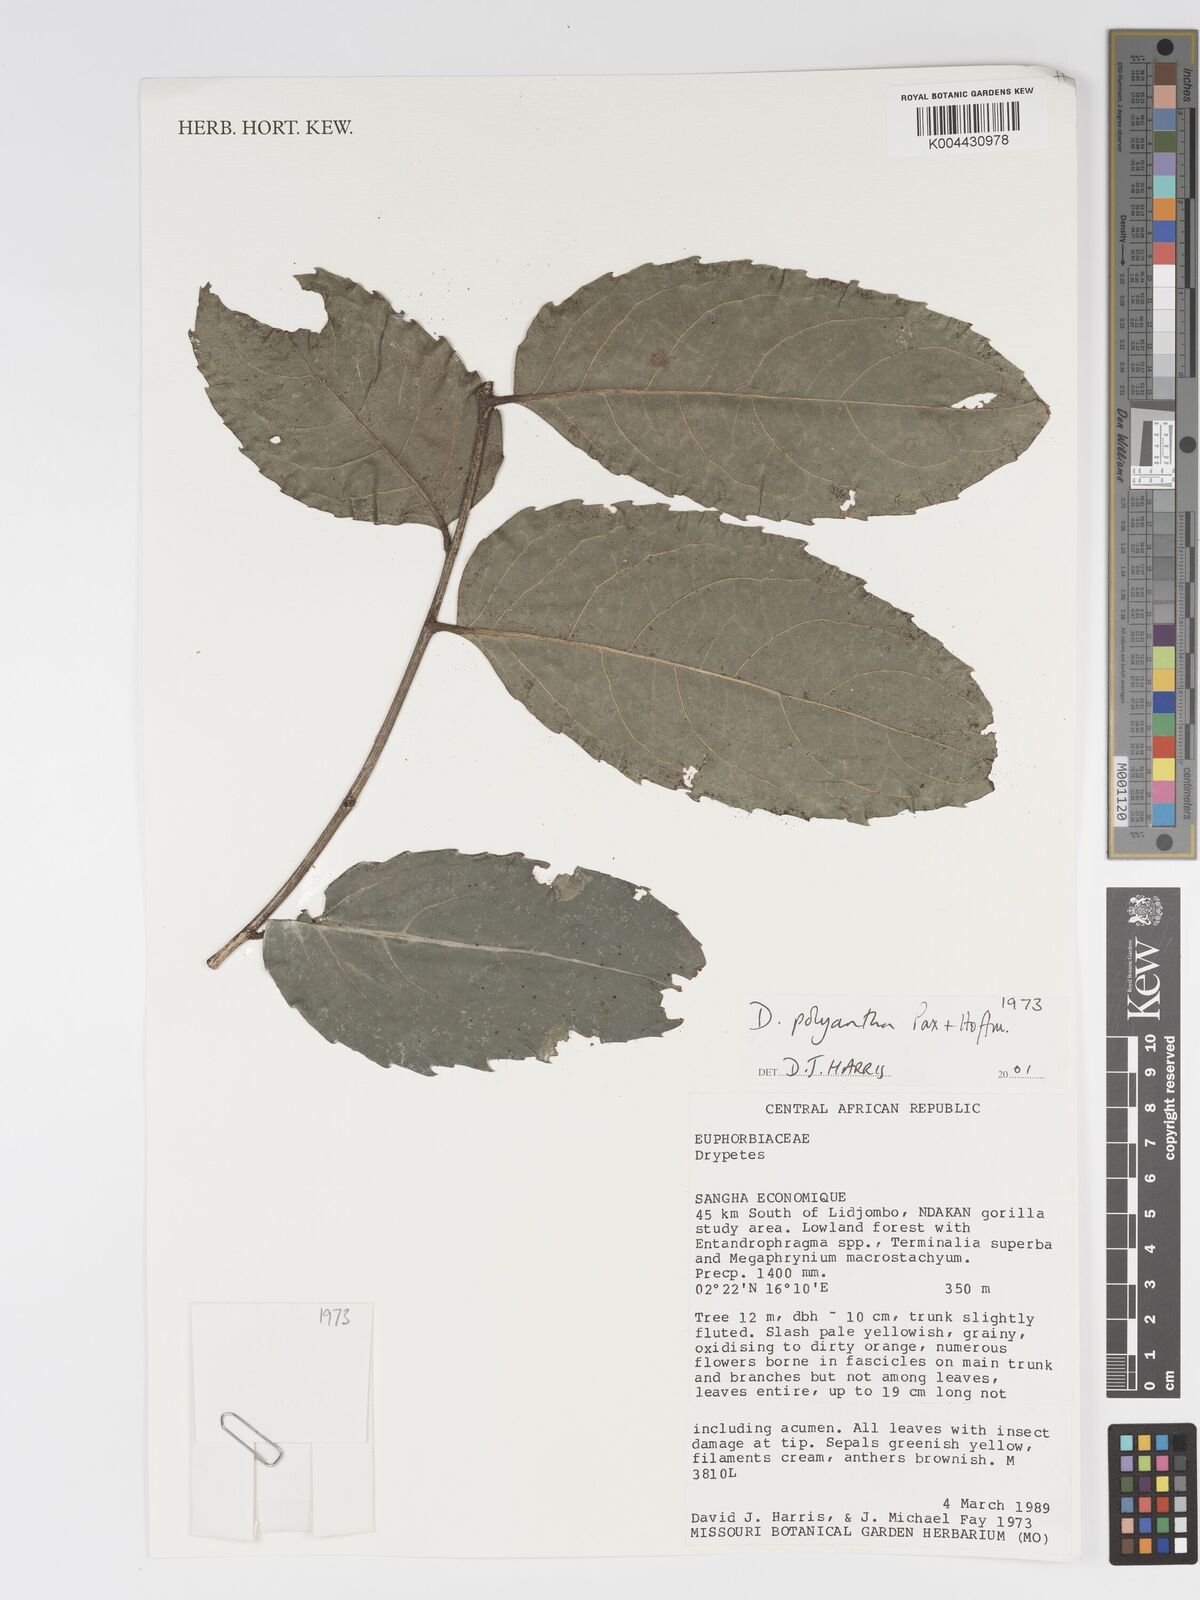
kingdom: Plantae
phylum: Tracheophyta
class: Magnoliopsida
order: Malpighiales
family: Putranjivaceae
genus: Drypetes
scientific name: Drypetes polyantha
